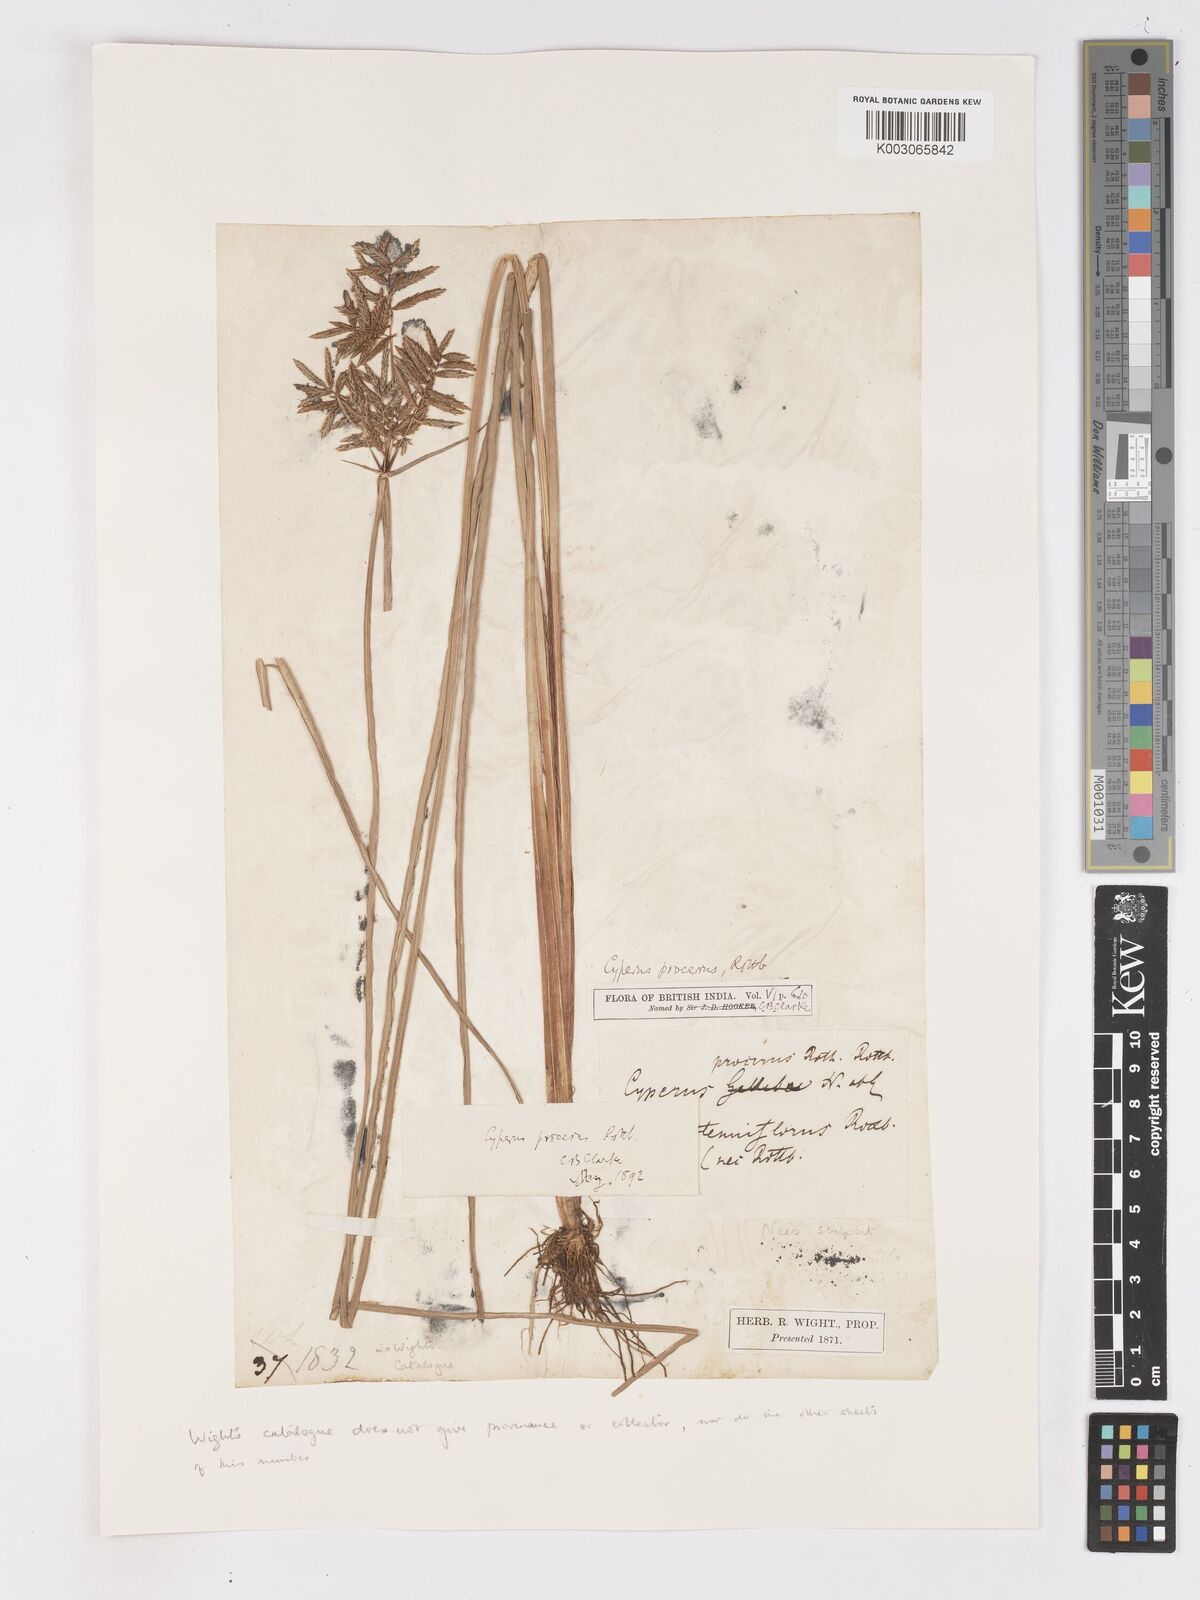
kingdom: Plantae
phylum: Tracheophyta
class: Liliopsida
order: Poales
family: Cyperaceae
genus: Cyperus
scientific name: Cyperus procerus
